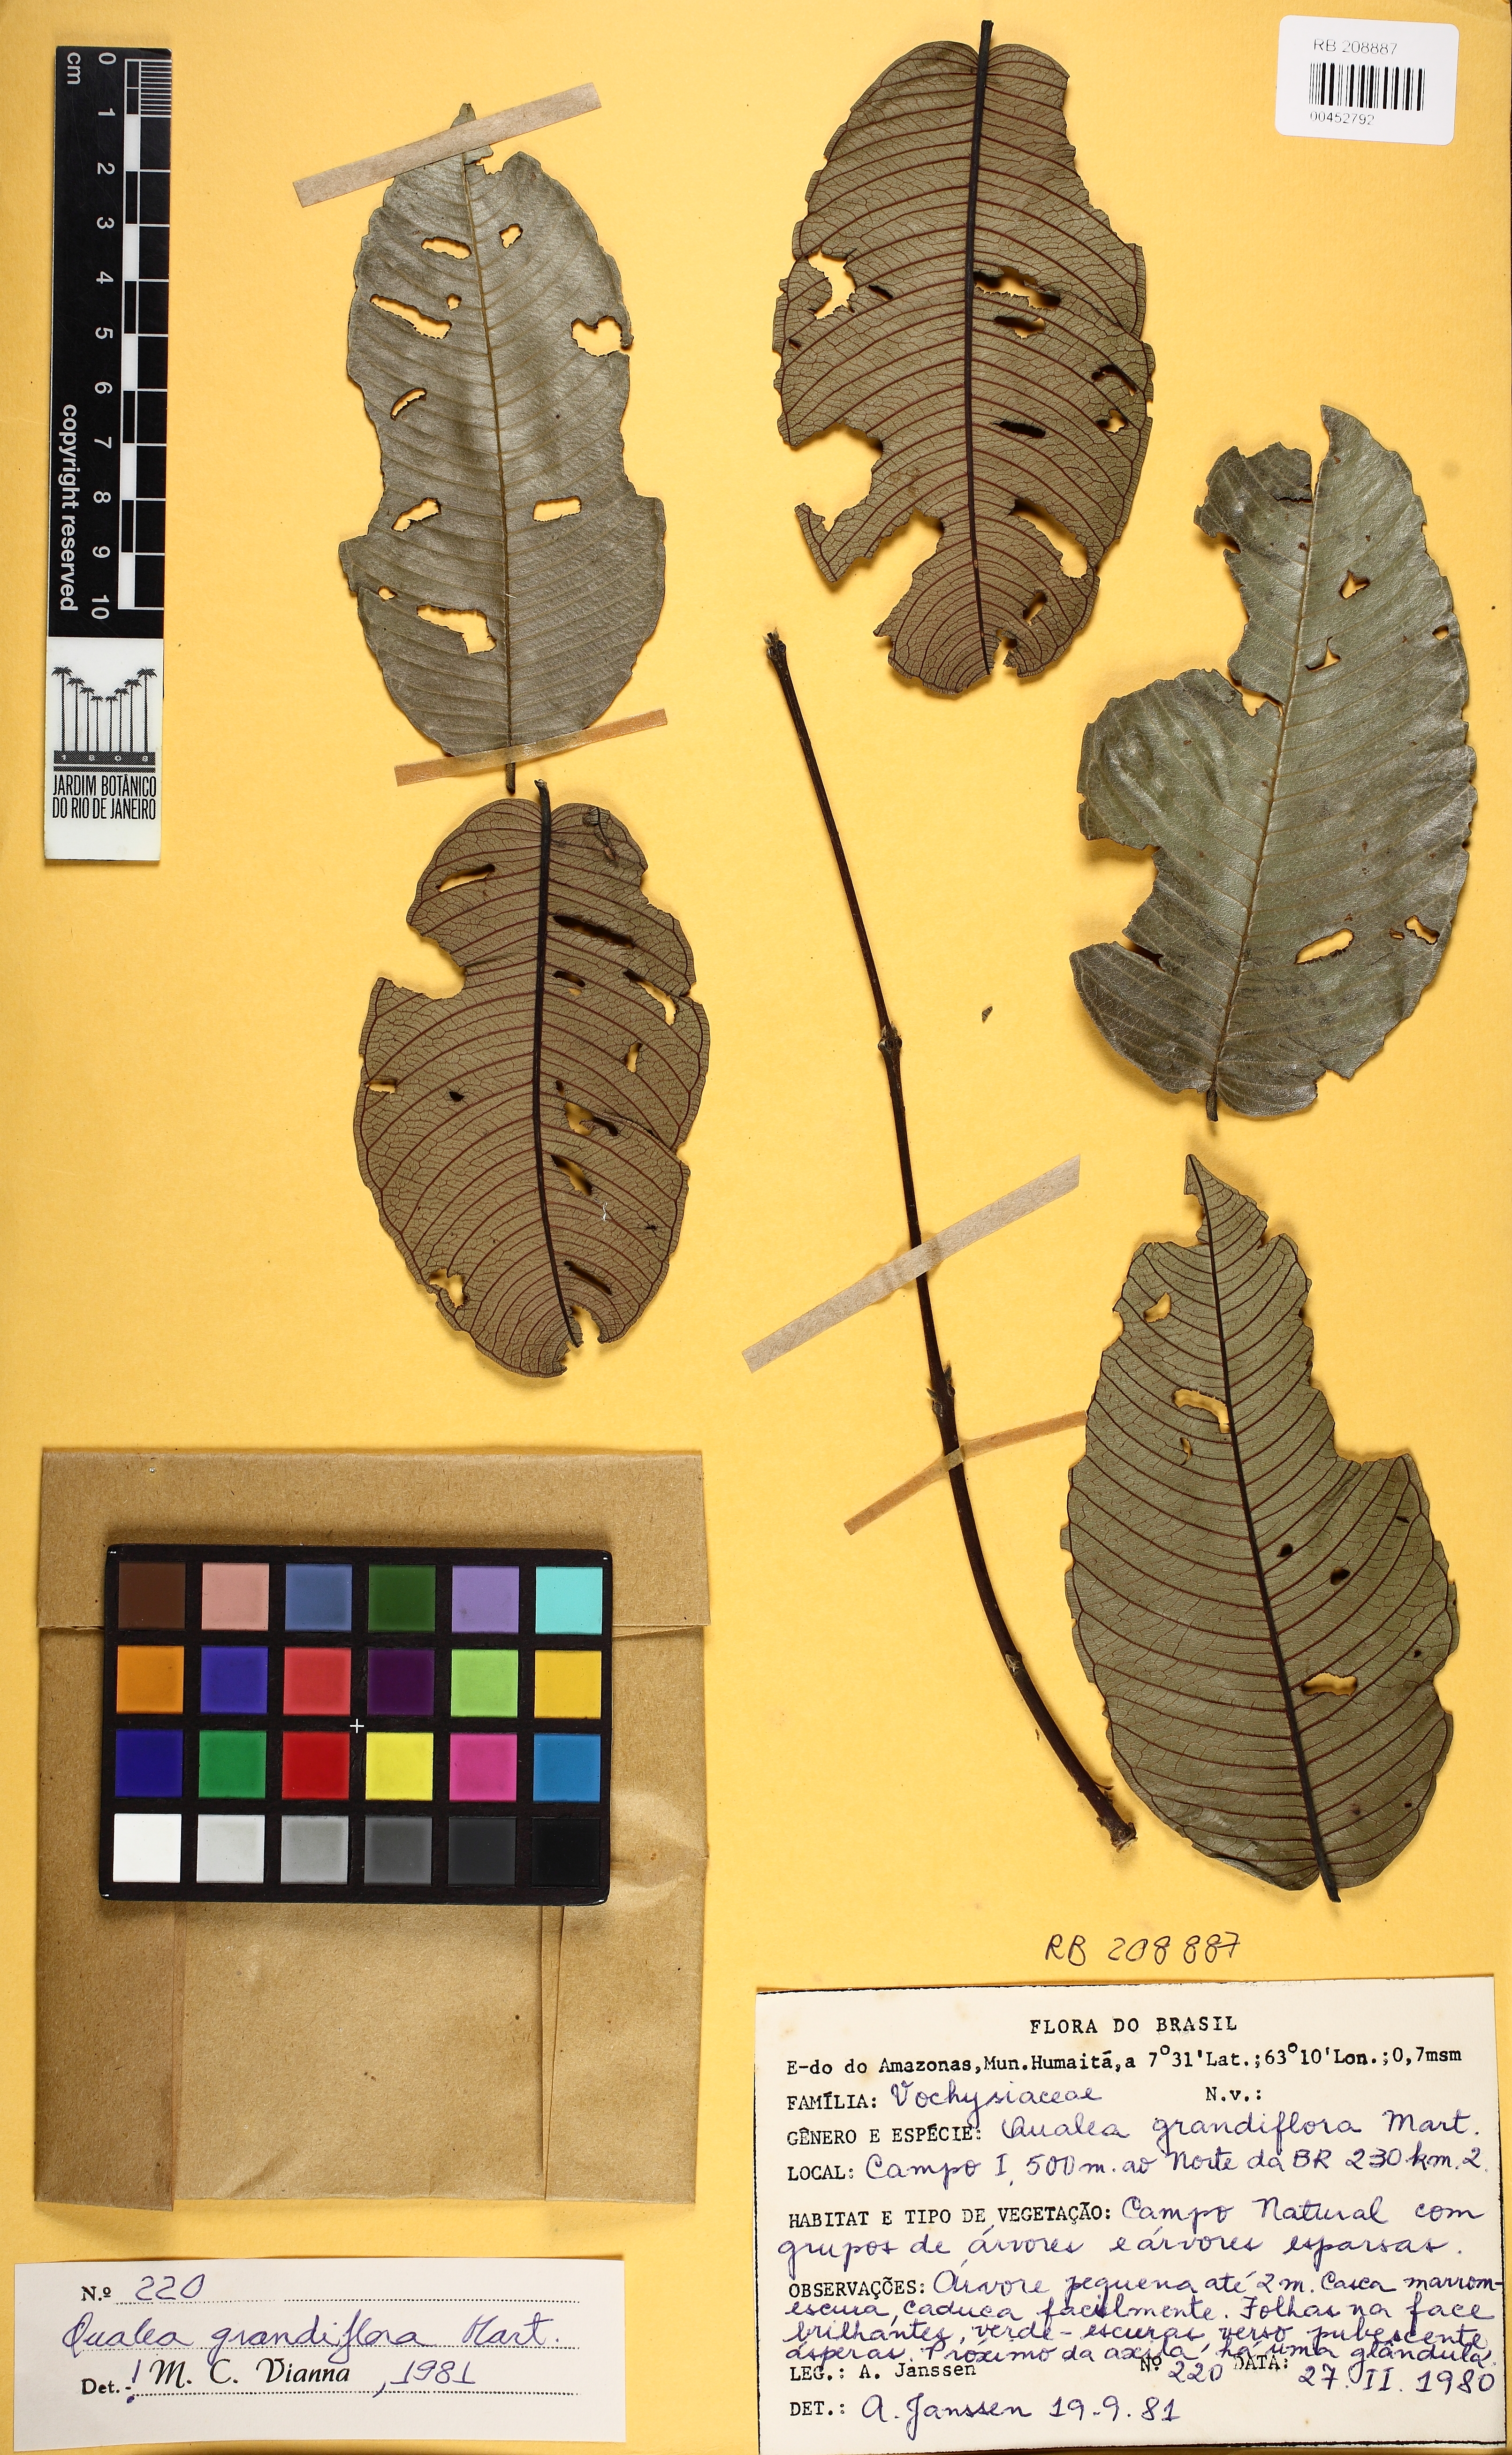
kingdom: Plantae
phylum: Tracheophyta
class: Magnoliopsida
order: Myrtales
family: Vochysiaceae
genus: Qualea
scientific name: Qualea grandiflora
